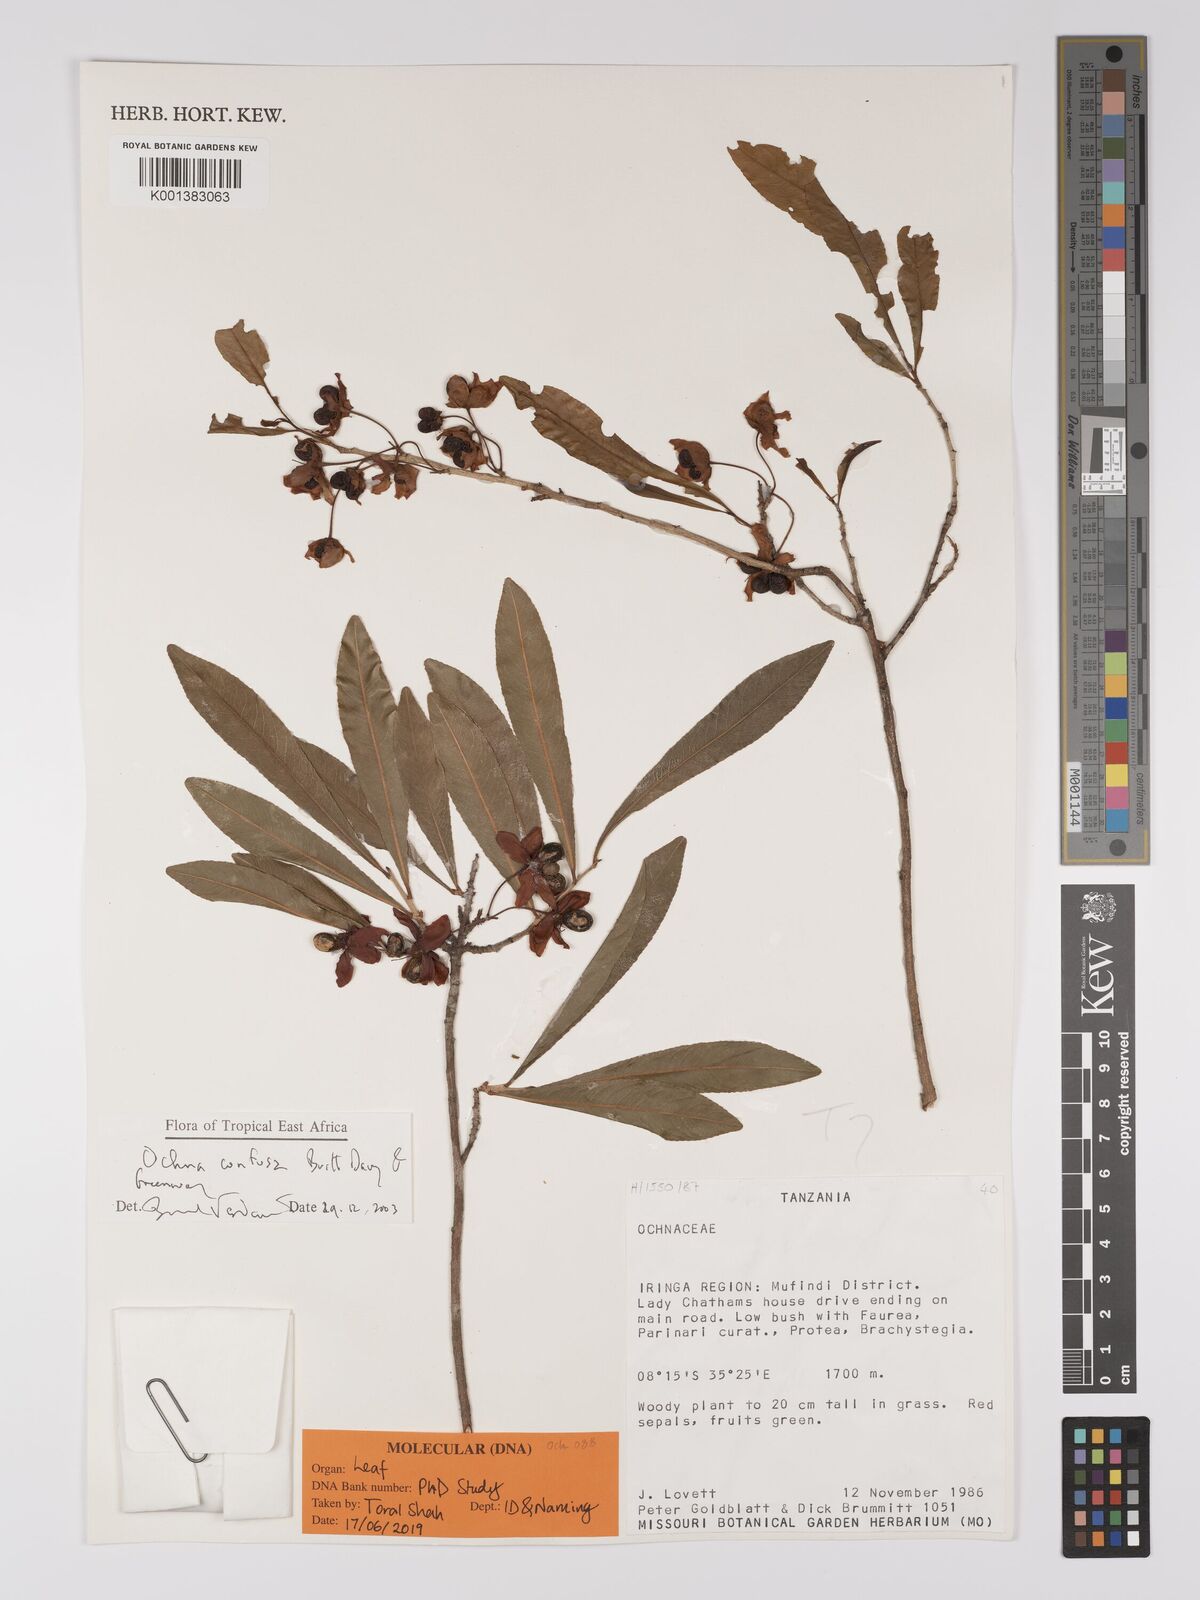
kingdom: Plantae
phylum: Tracheophyta
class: Magnoliopsida
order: Malpighiales
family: Ochnaceae
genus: Ochna
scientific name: Ochna confusa
